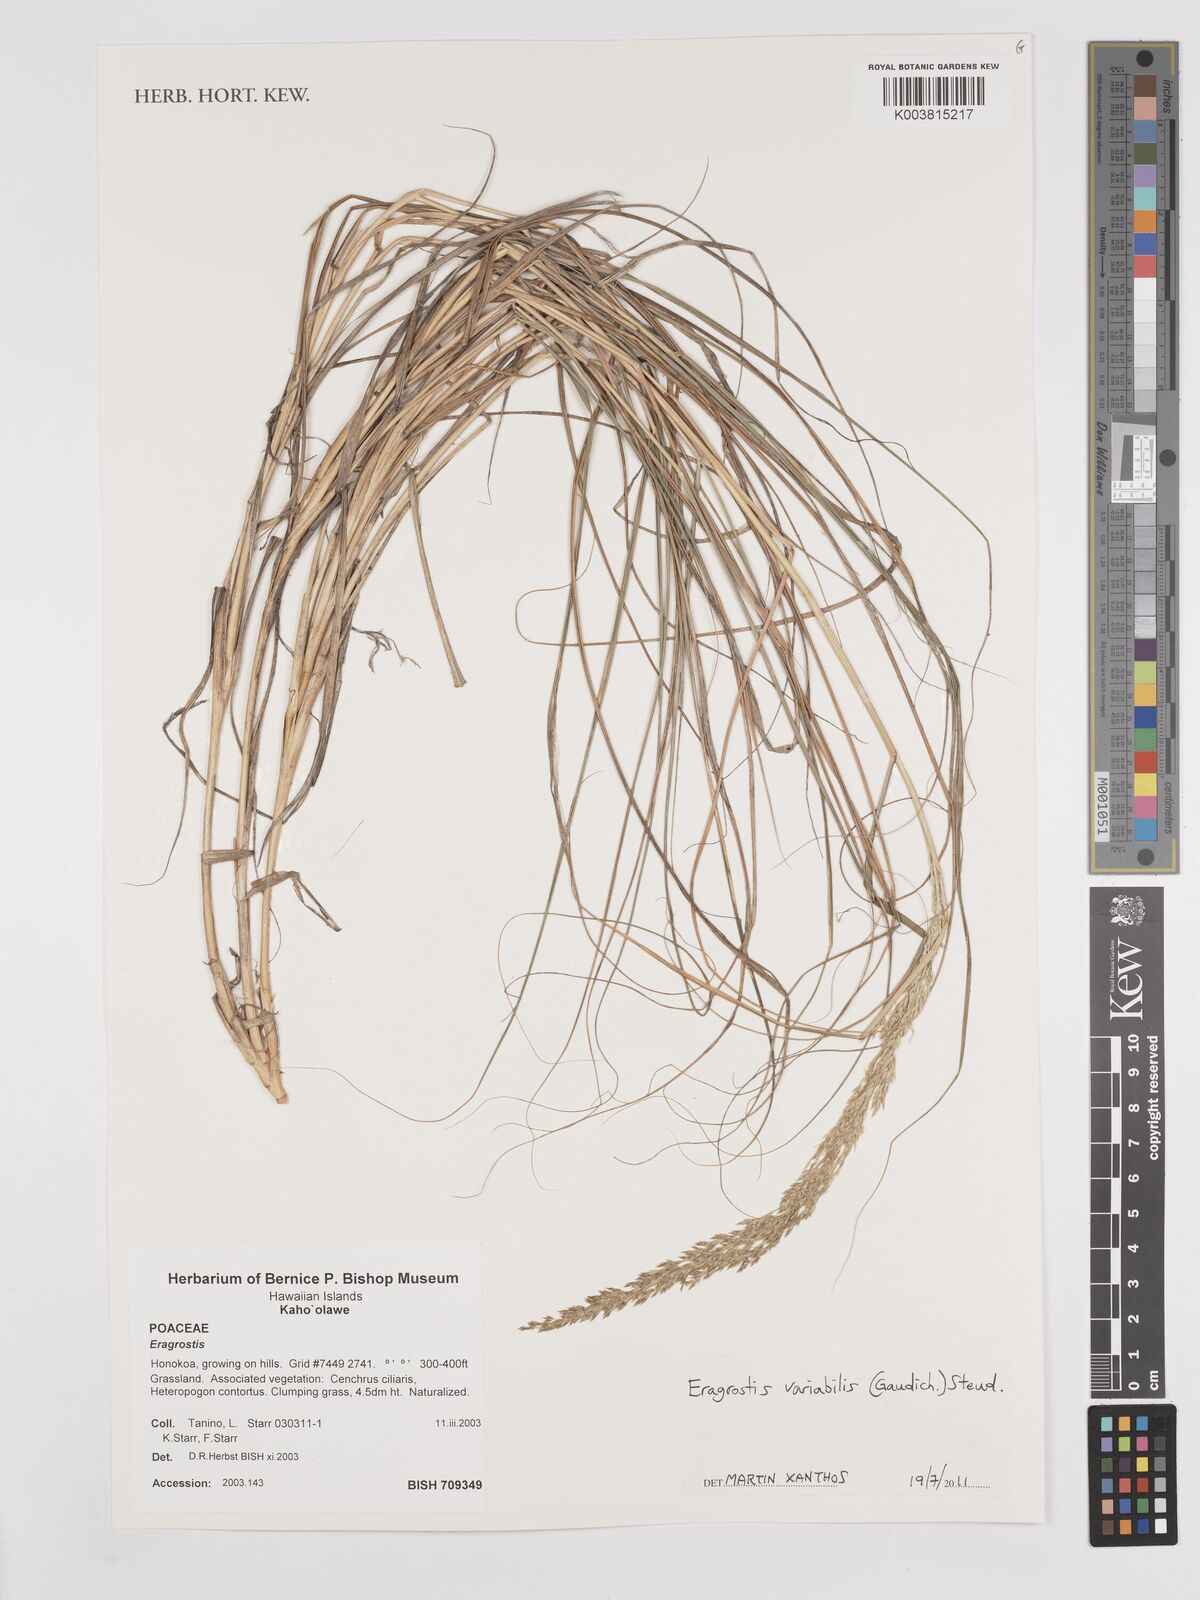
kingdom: Plantae
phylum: Tracheophyta
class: Liliopsida
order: Poales
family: Poaceae
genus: Eragrostis
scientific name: Eragrostis variabilis
